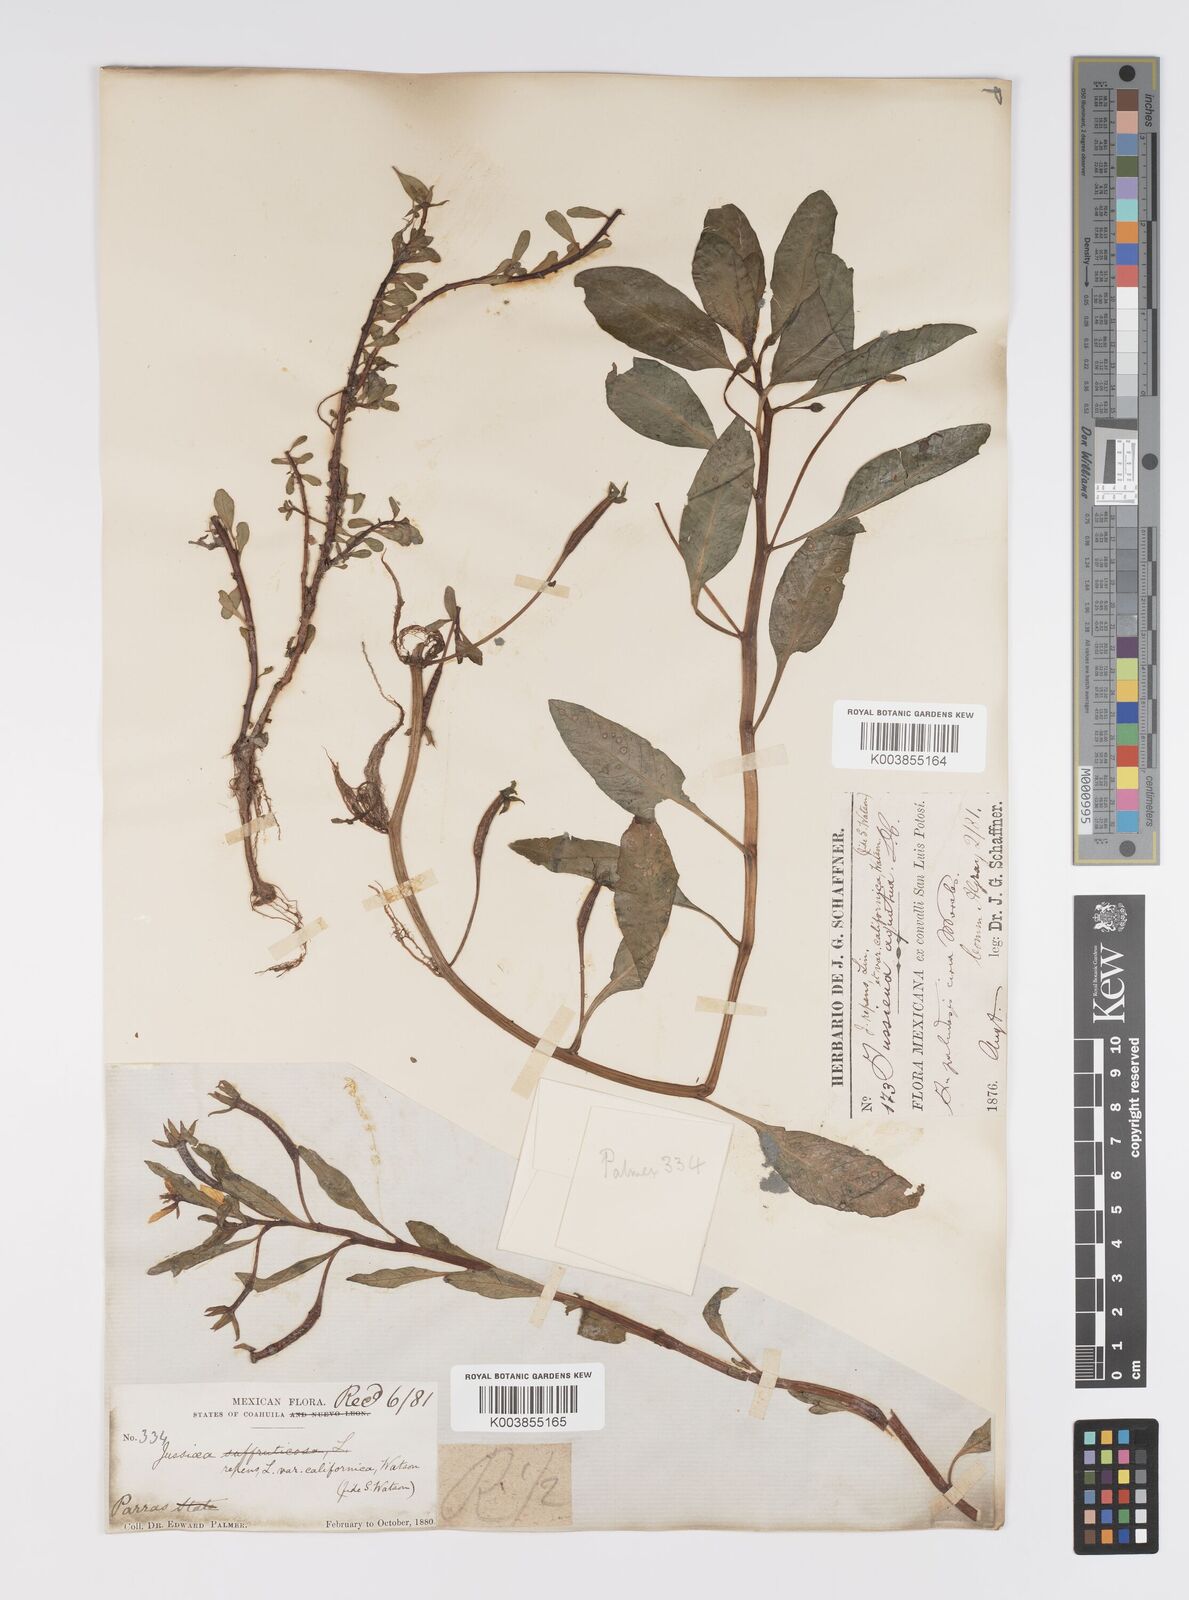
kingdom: Plantae
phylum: Tracheophyta
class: Magnoliopsida
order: Myrtales
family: Onagraceae
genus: Ludwigia
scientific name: Ludwigia adscendens
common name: Creeping water primrose
